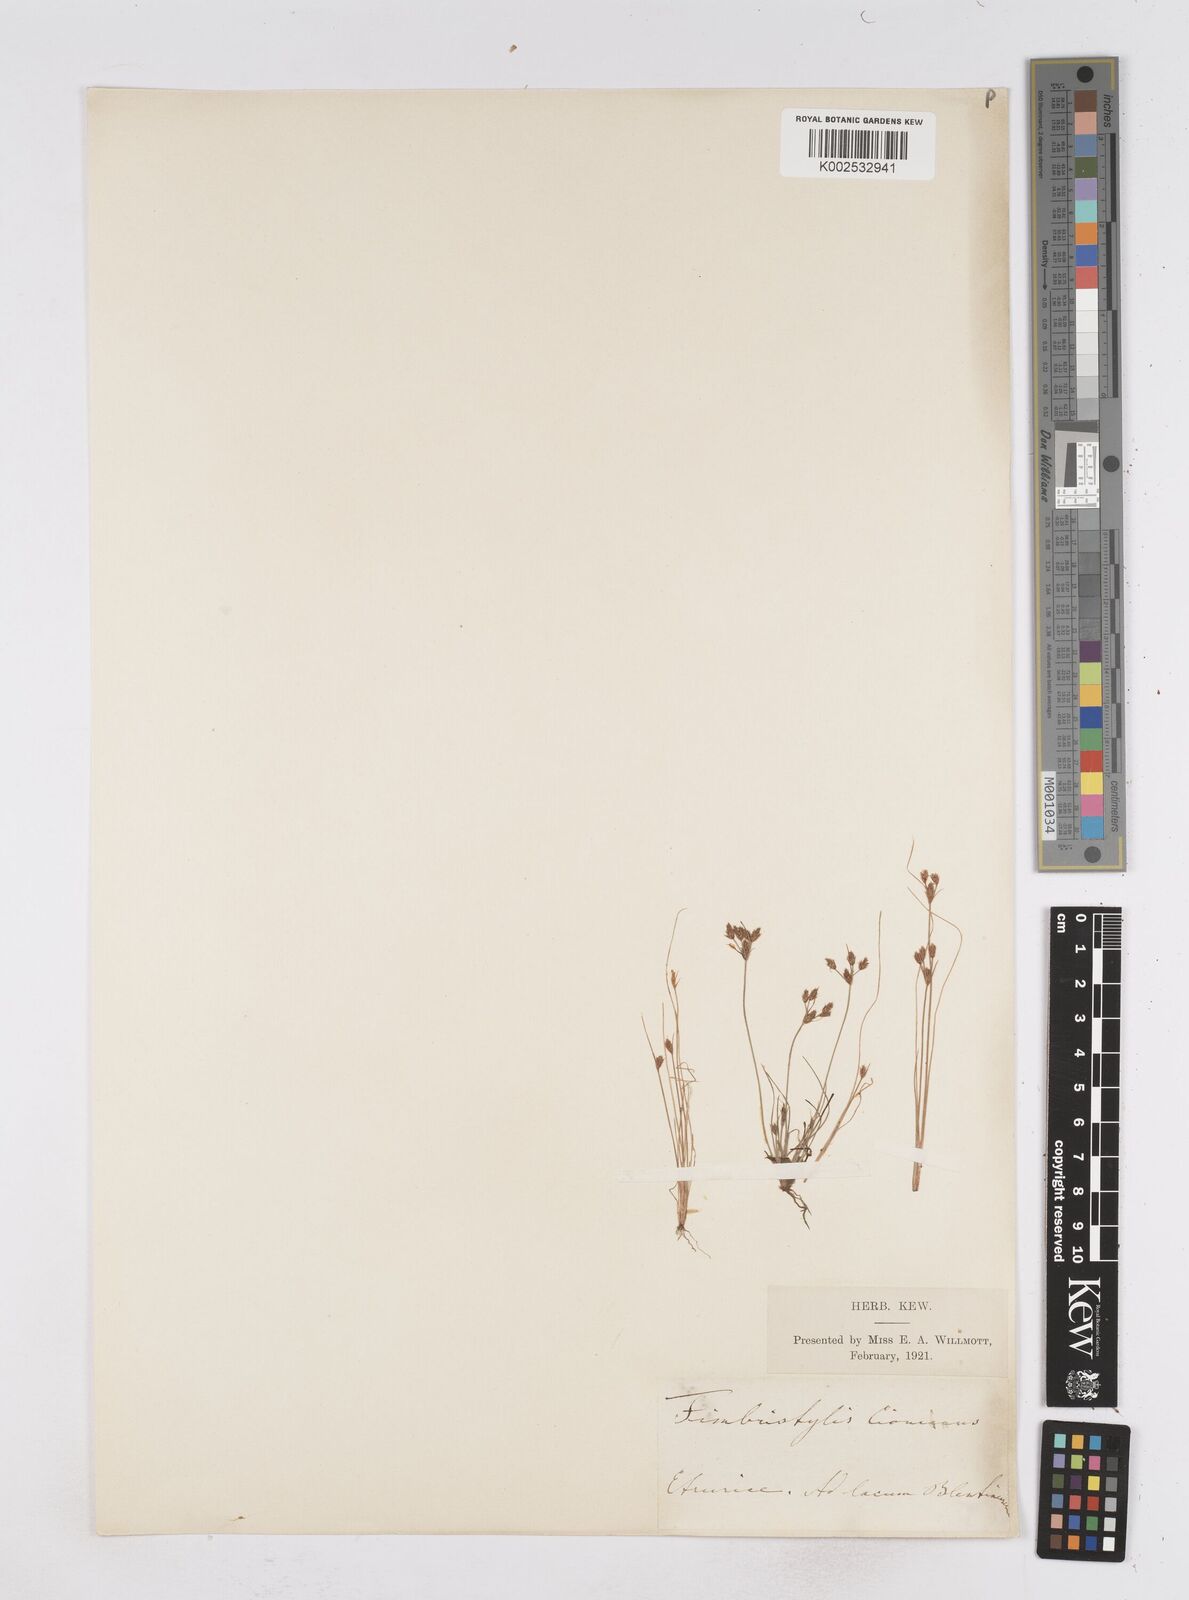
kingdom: Plantae
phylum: Tracheophyta
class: Liliopsida
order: Poales
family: Cyperaceae
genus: Bulbostylis
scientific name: Bulbostylis cioniana
